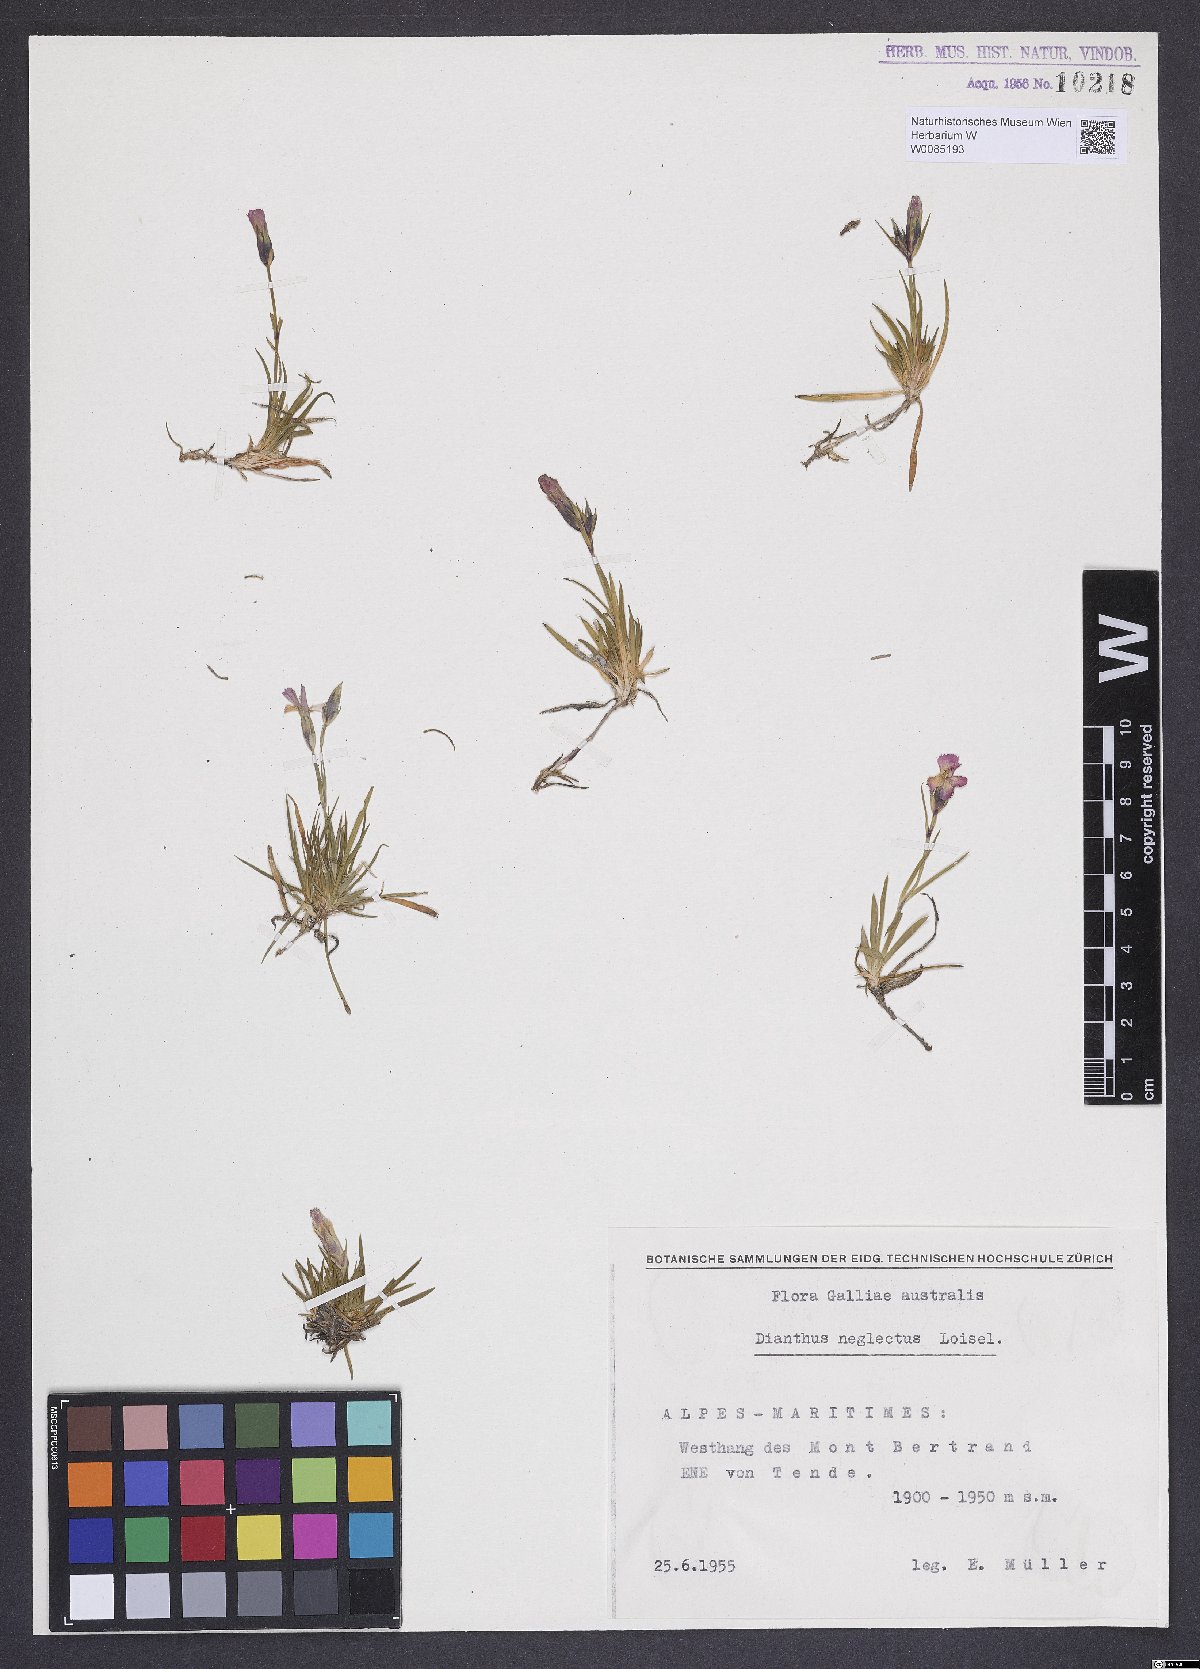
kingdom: Plantae
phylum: Tracheophyta
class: Magnoliopsida
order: Caryophyllales
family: Caryophyllaceae
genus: Dianthus
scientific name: Dianthus pavonius
